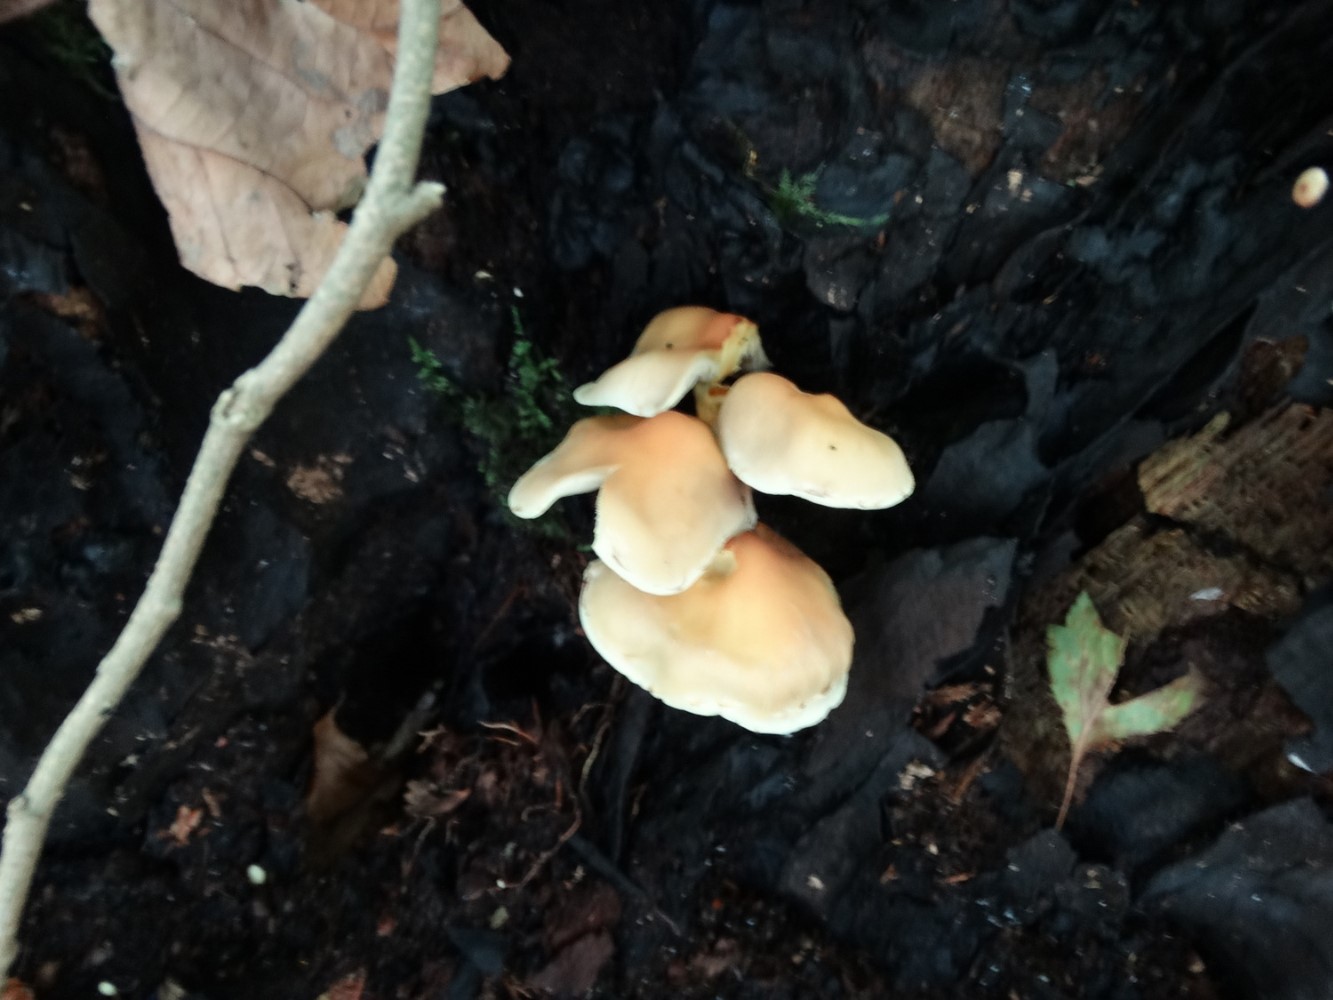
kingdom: Fungi
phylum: Basidiomycota
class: Agaricomycetes
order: Agaricales
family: Strophariaceae
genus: Hypholoma
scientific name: Hypholoma fasciculare
